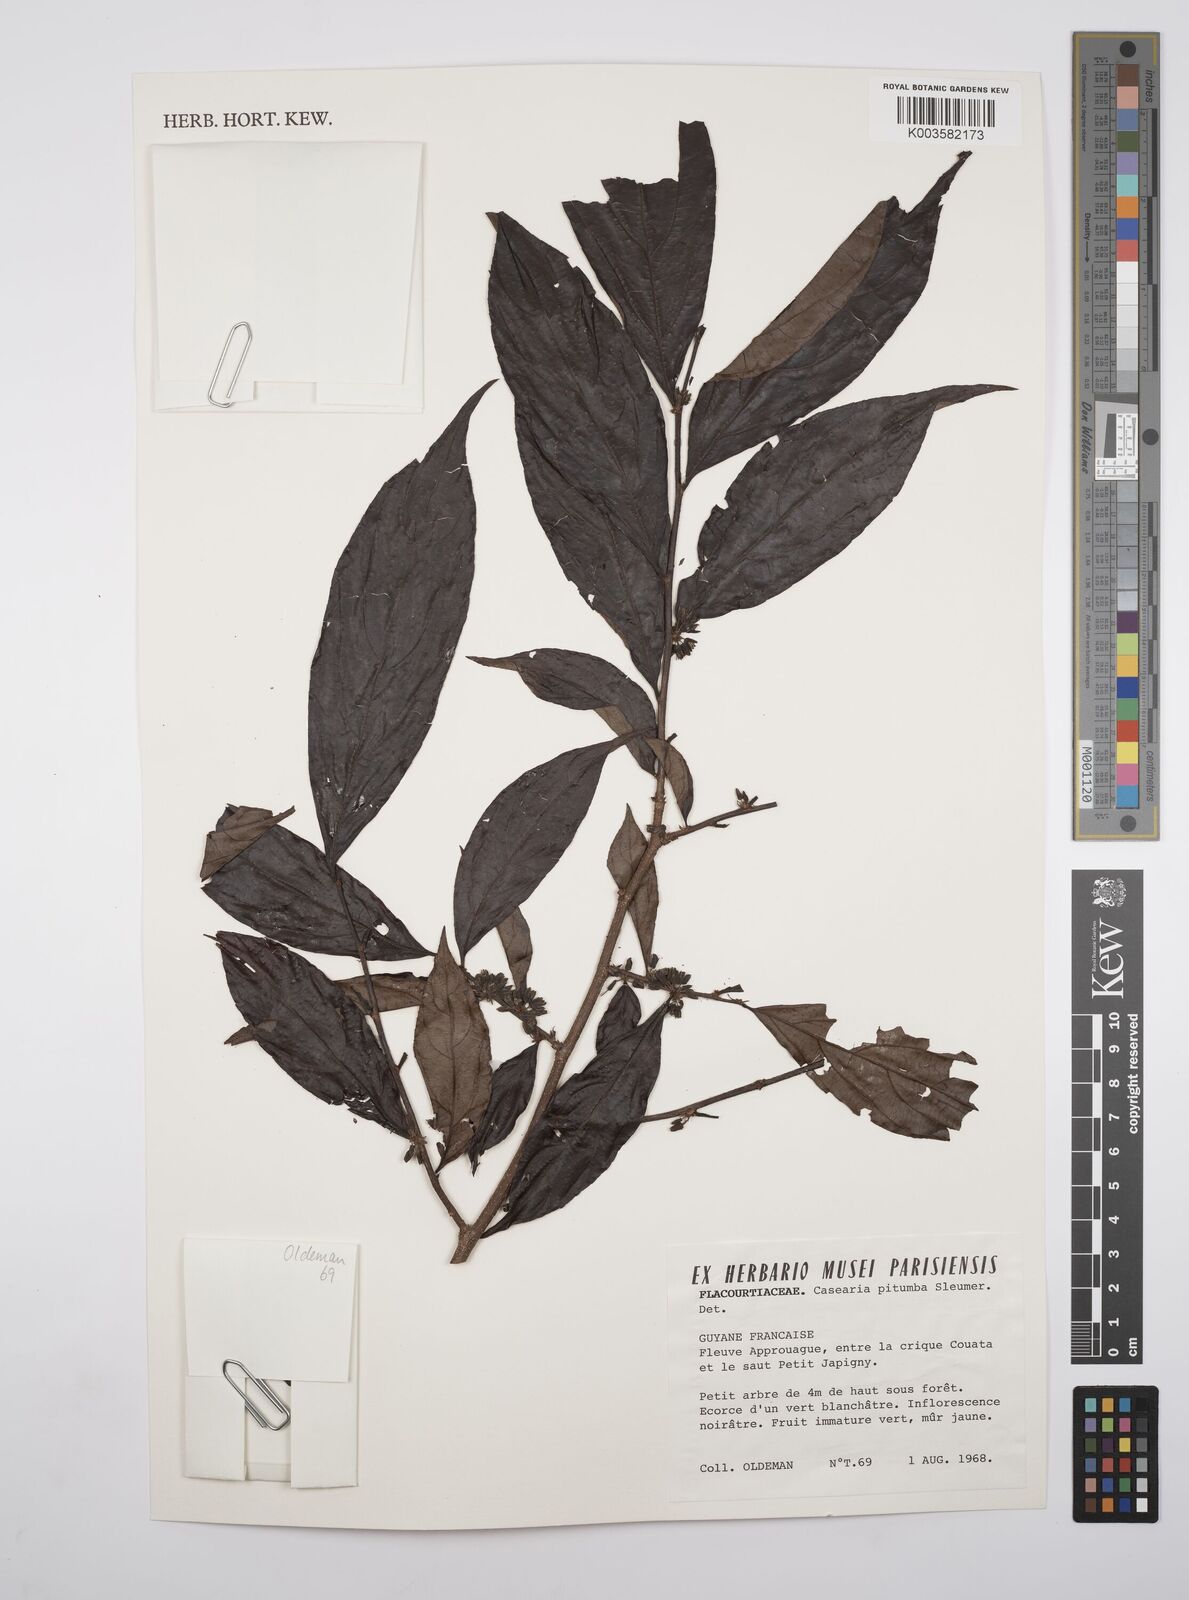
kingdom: Plantae
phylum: Tracheophyta
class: Magnoliopsida
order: Malpighiales
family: Salicaceae
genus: Casearia
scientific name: Casearia pitumba
